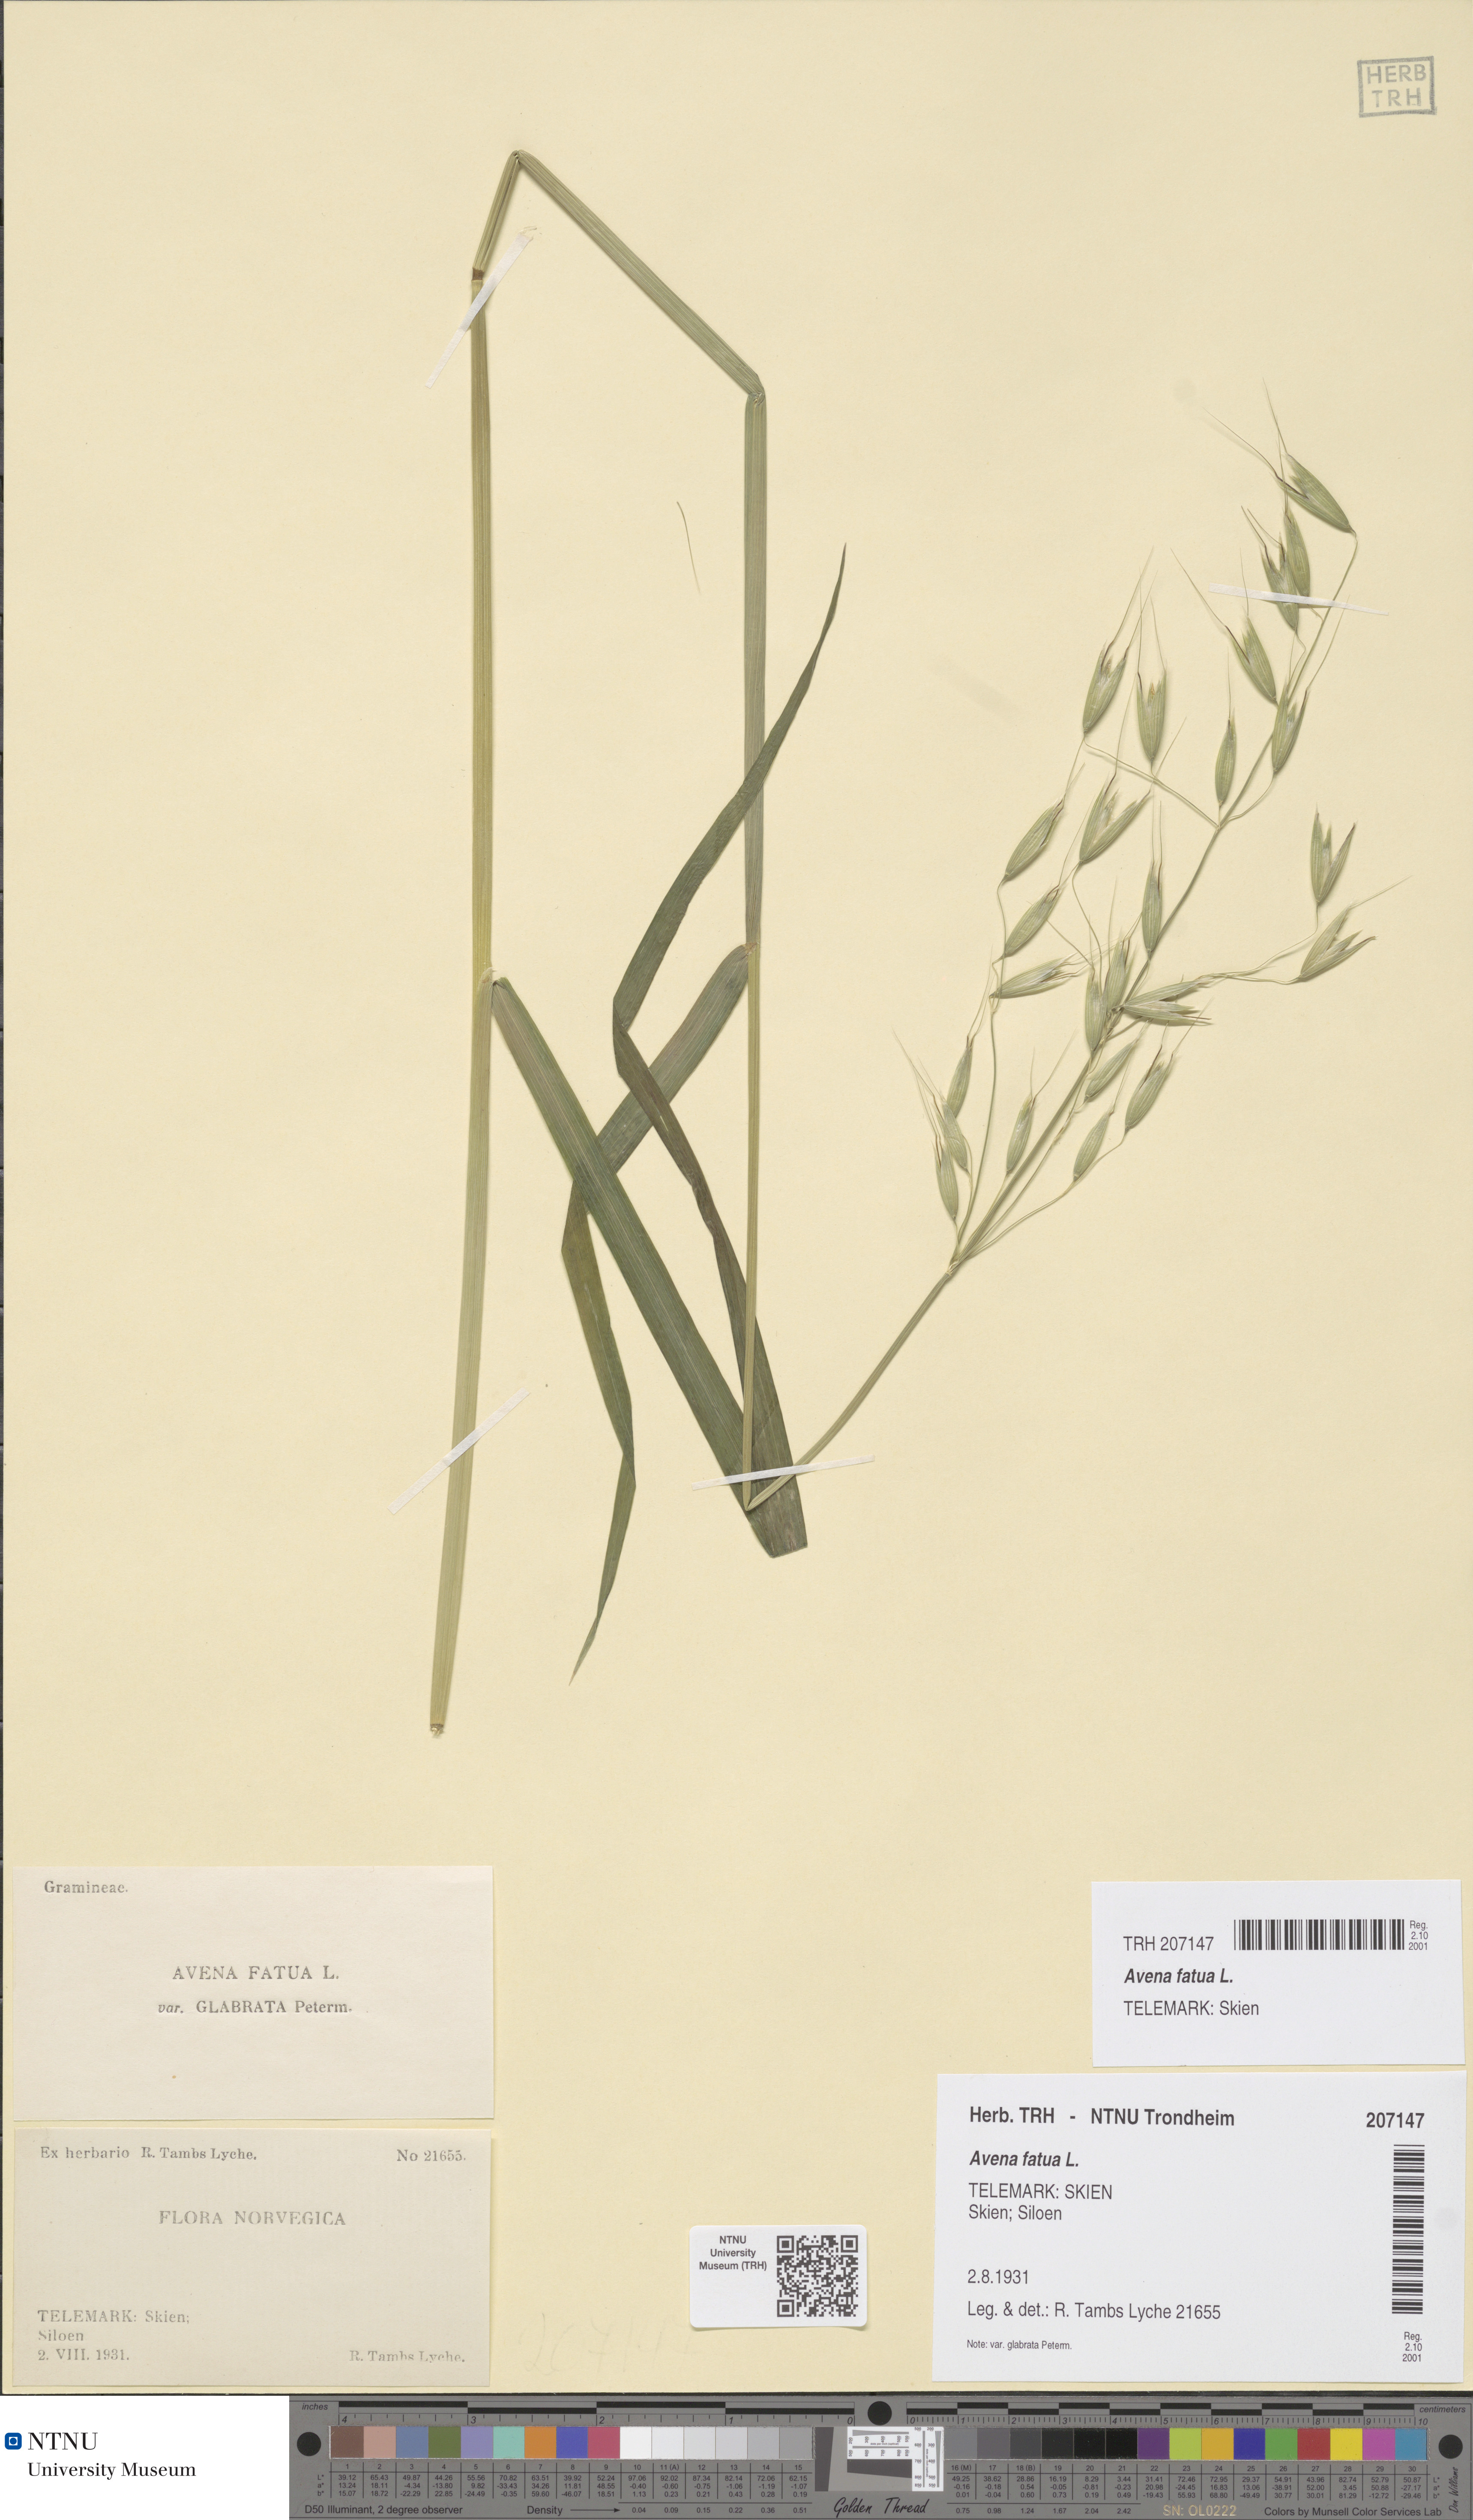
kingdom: Plantae
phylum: Tracheophyta
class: Liliopsida
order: Poales
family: Poaceae
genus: Avena
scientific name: Avena fatua
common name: Wild oat
